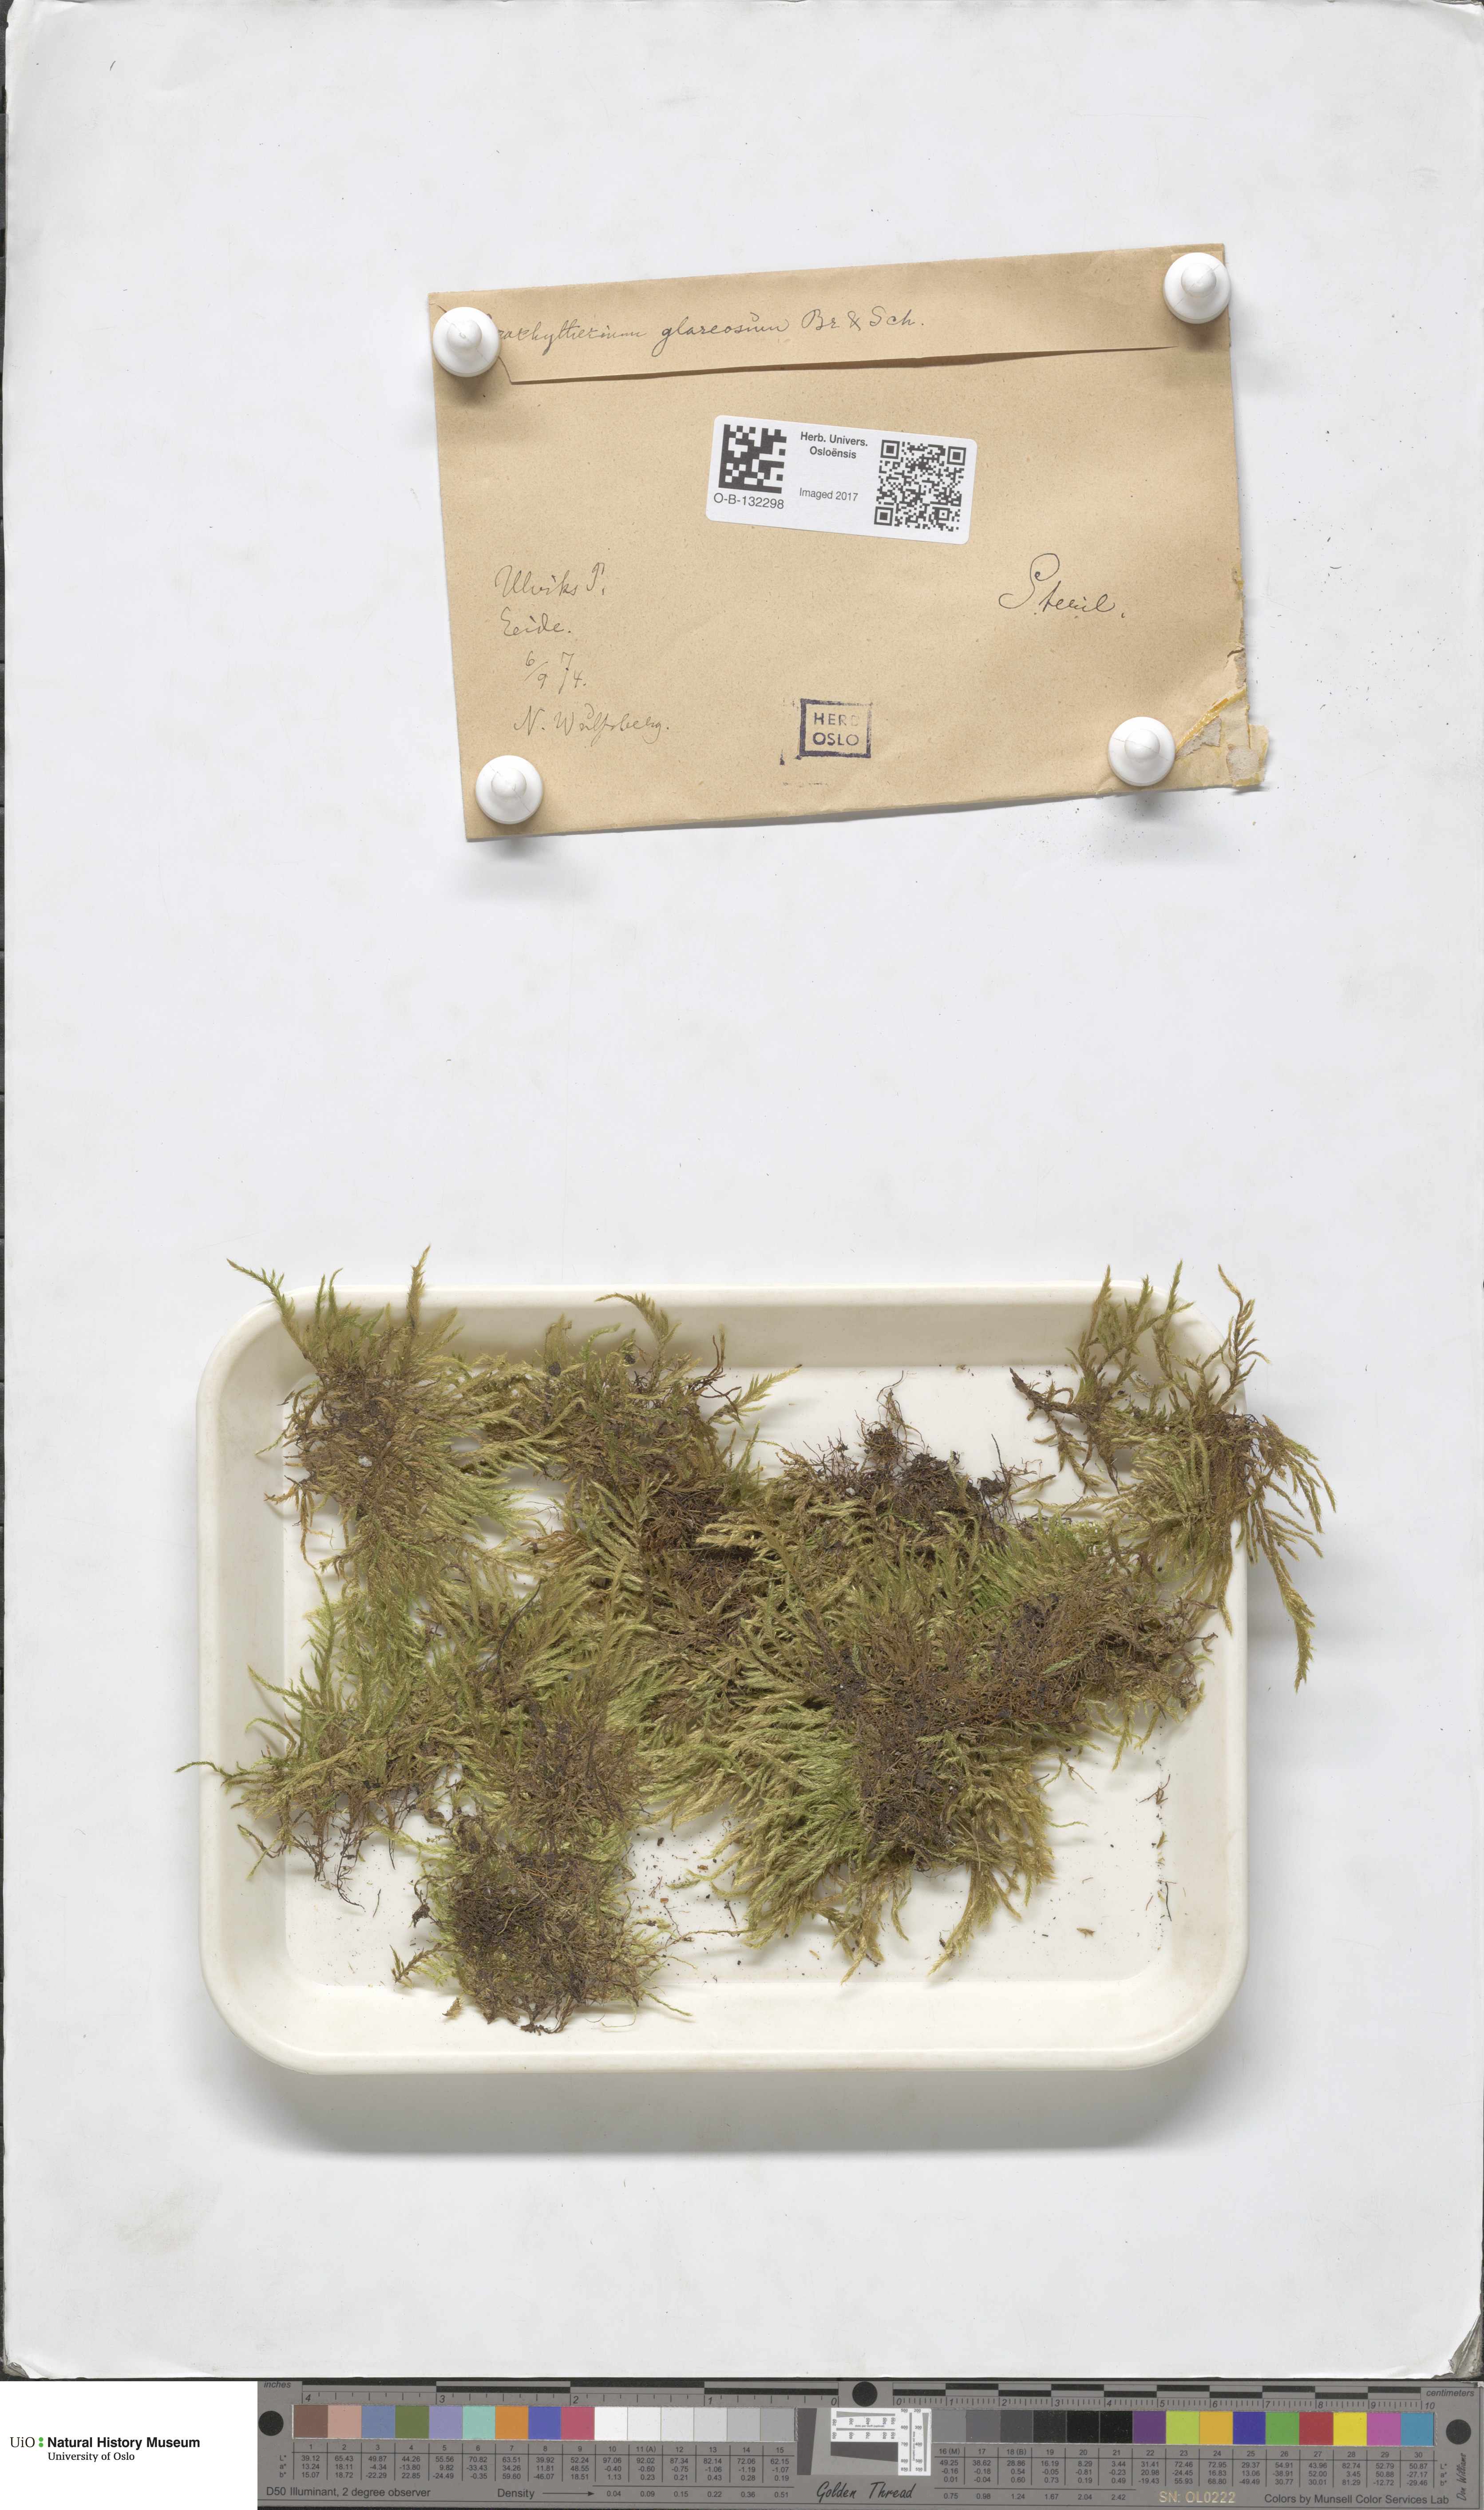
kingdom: Plantae
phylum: Bryophyta
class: Bryopsida
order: Hypnales
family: Brachytheciaceae
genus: Brachythecium
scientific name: Brachythecium glareosum
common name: Streaky feather-moss
